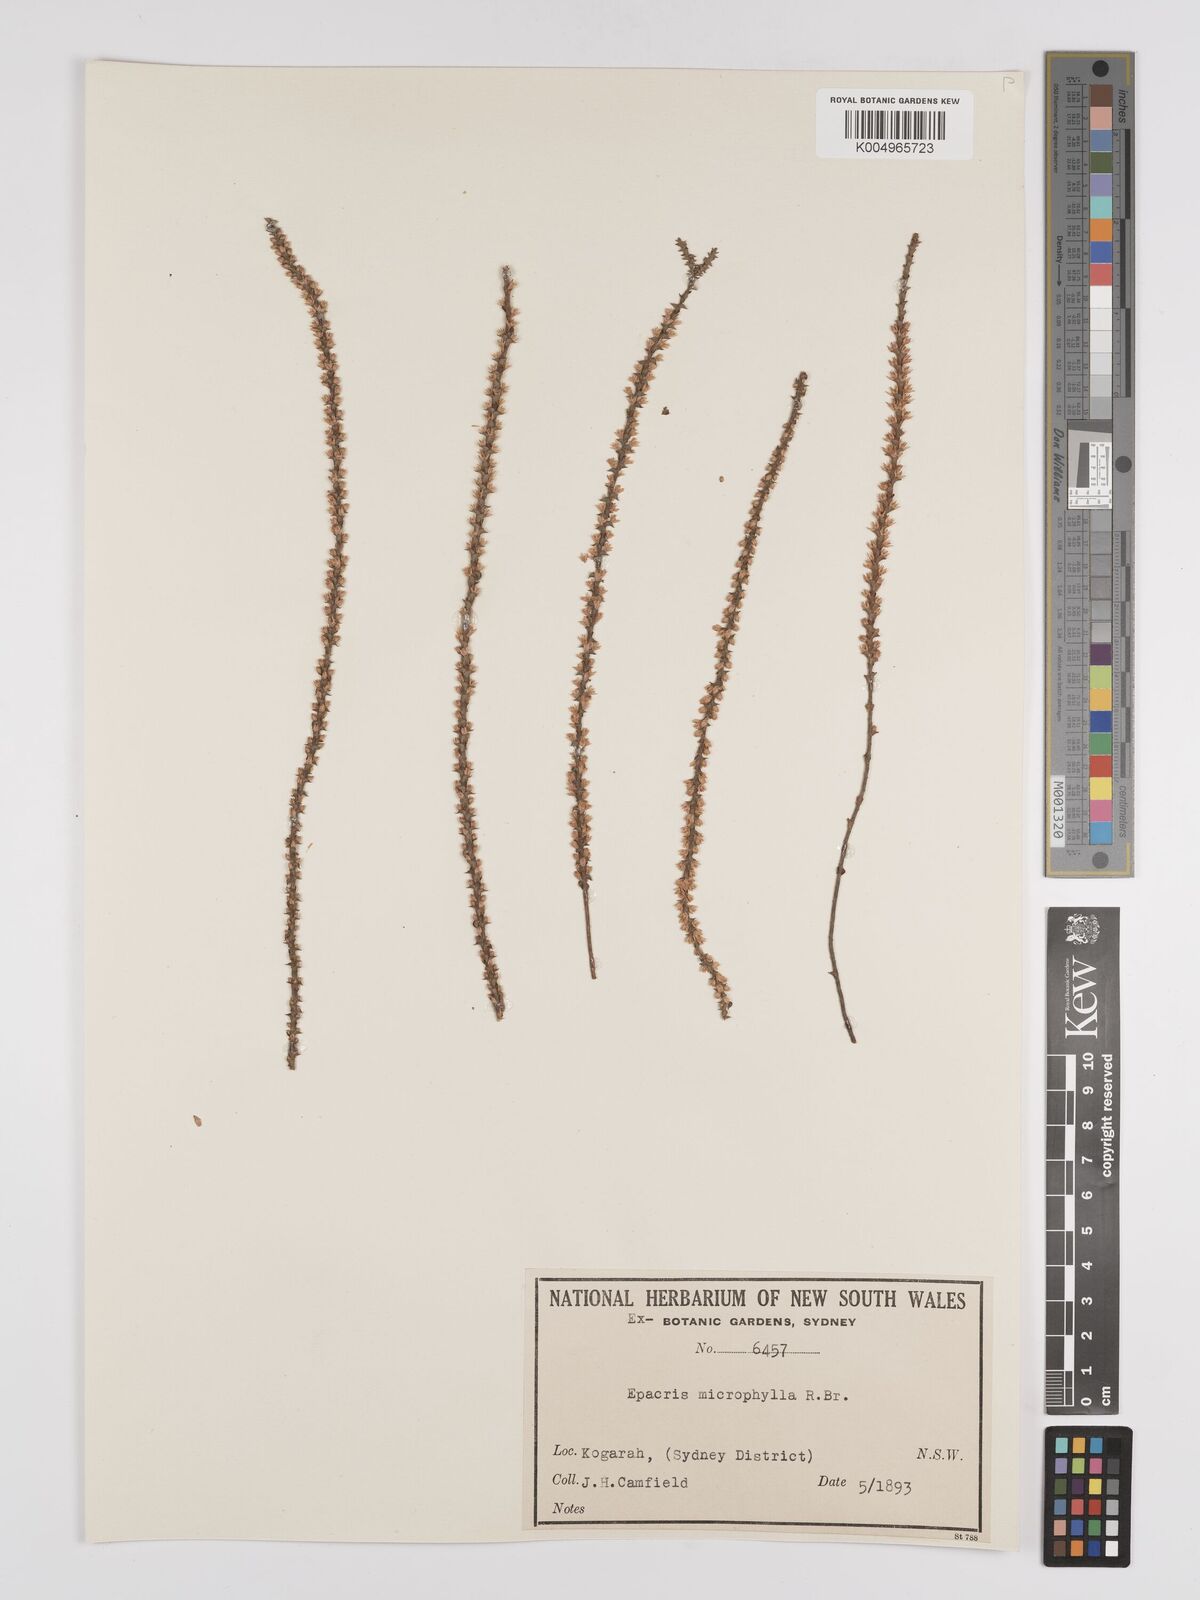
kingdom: Plantae
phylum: Tracheophyta
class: Magnoliopsida
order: Ericales
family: Ericaceae
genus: Epacris
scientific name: Epacris
